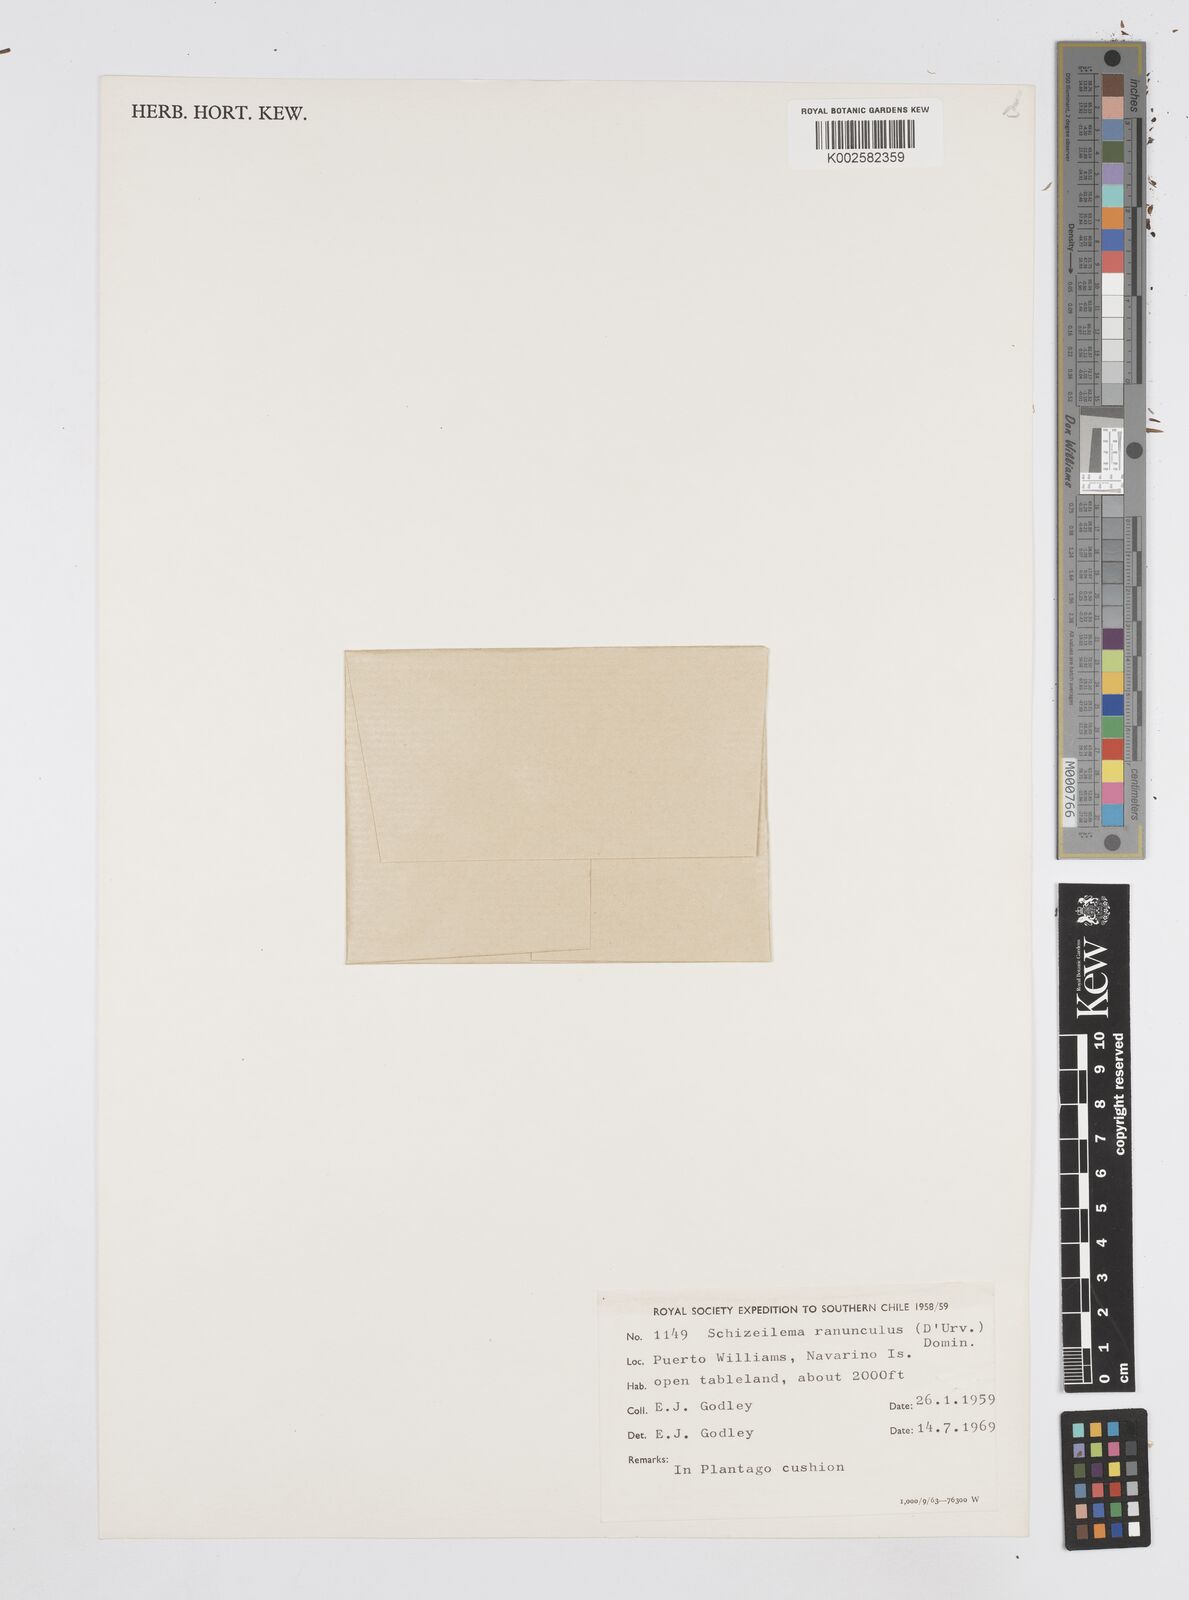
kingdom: Plantae
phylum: Tracheophyta
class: Magnoliopsida
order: Apiales
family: Apiaceae
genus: Azorella
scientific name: Azorella ranunculus
